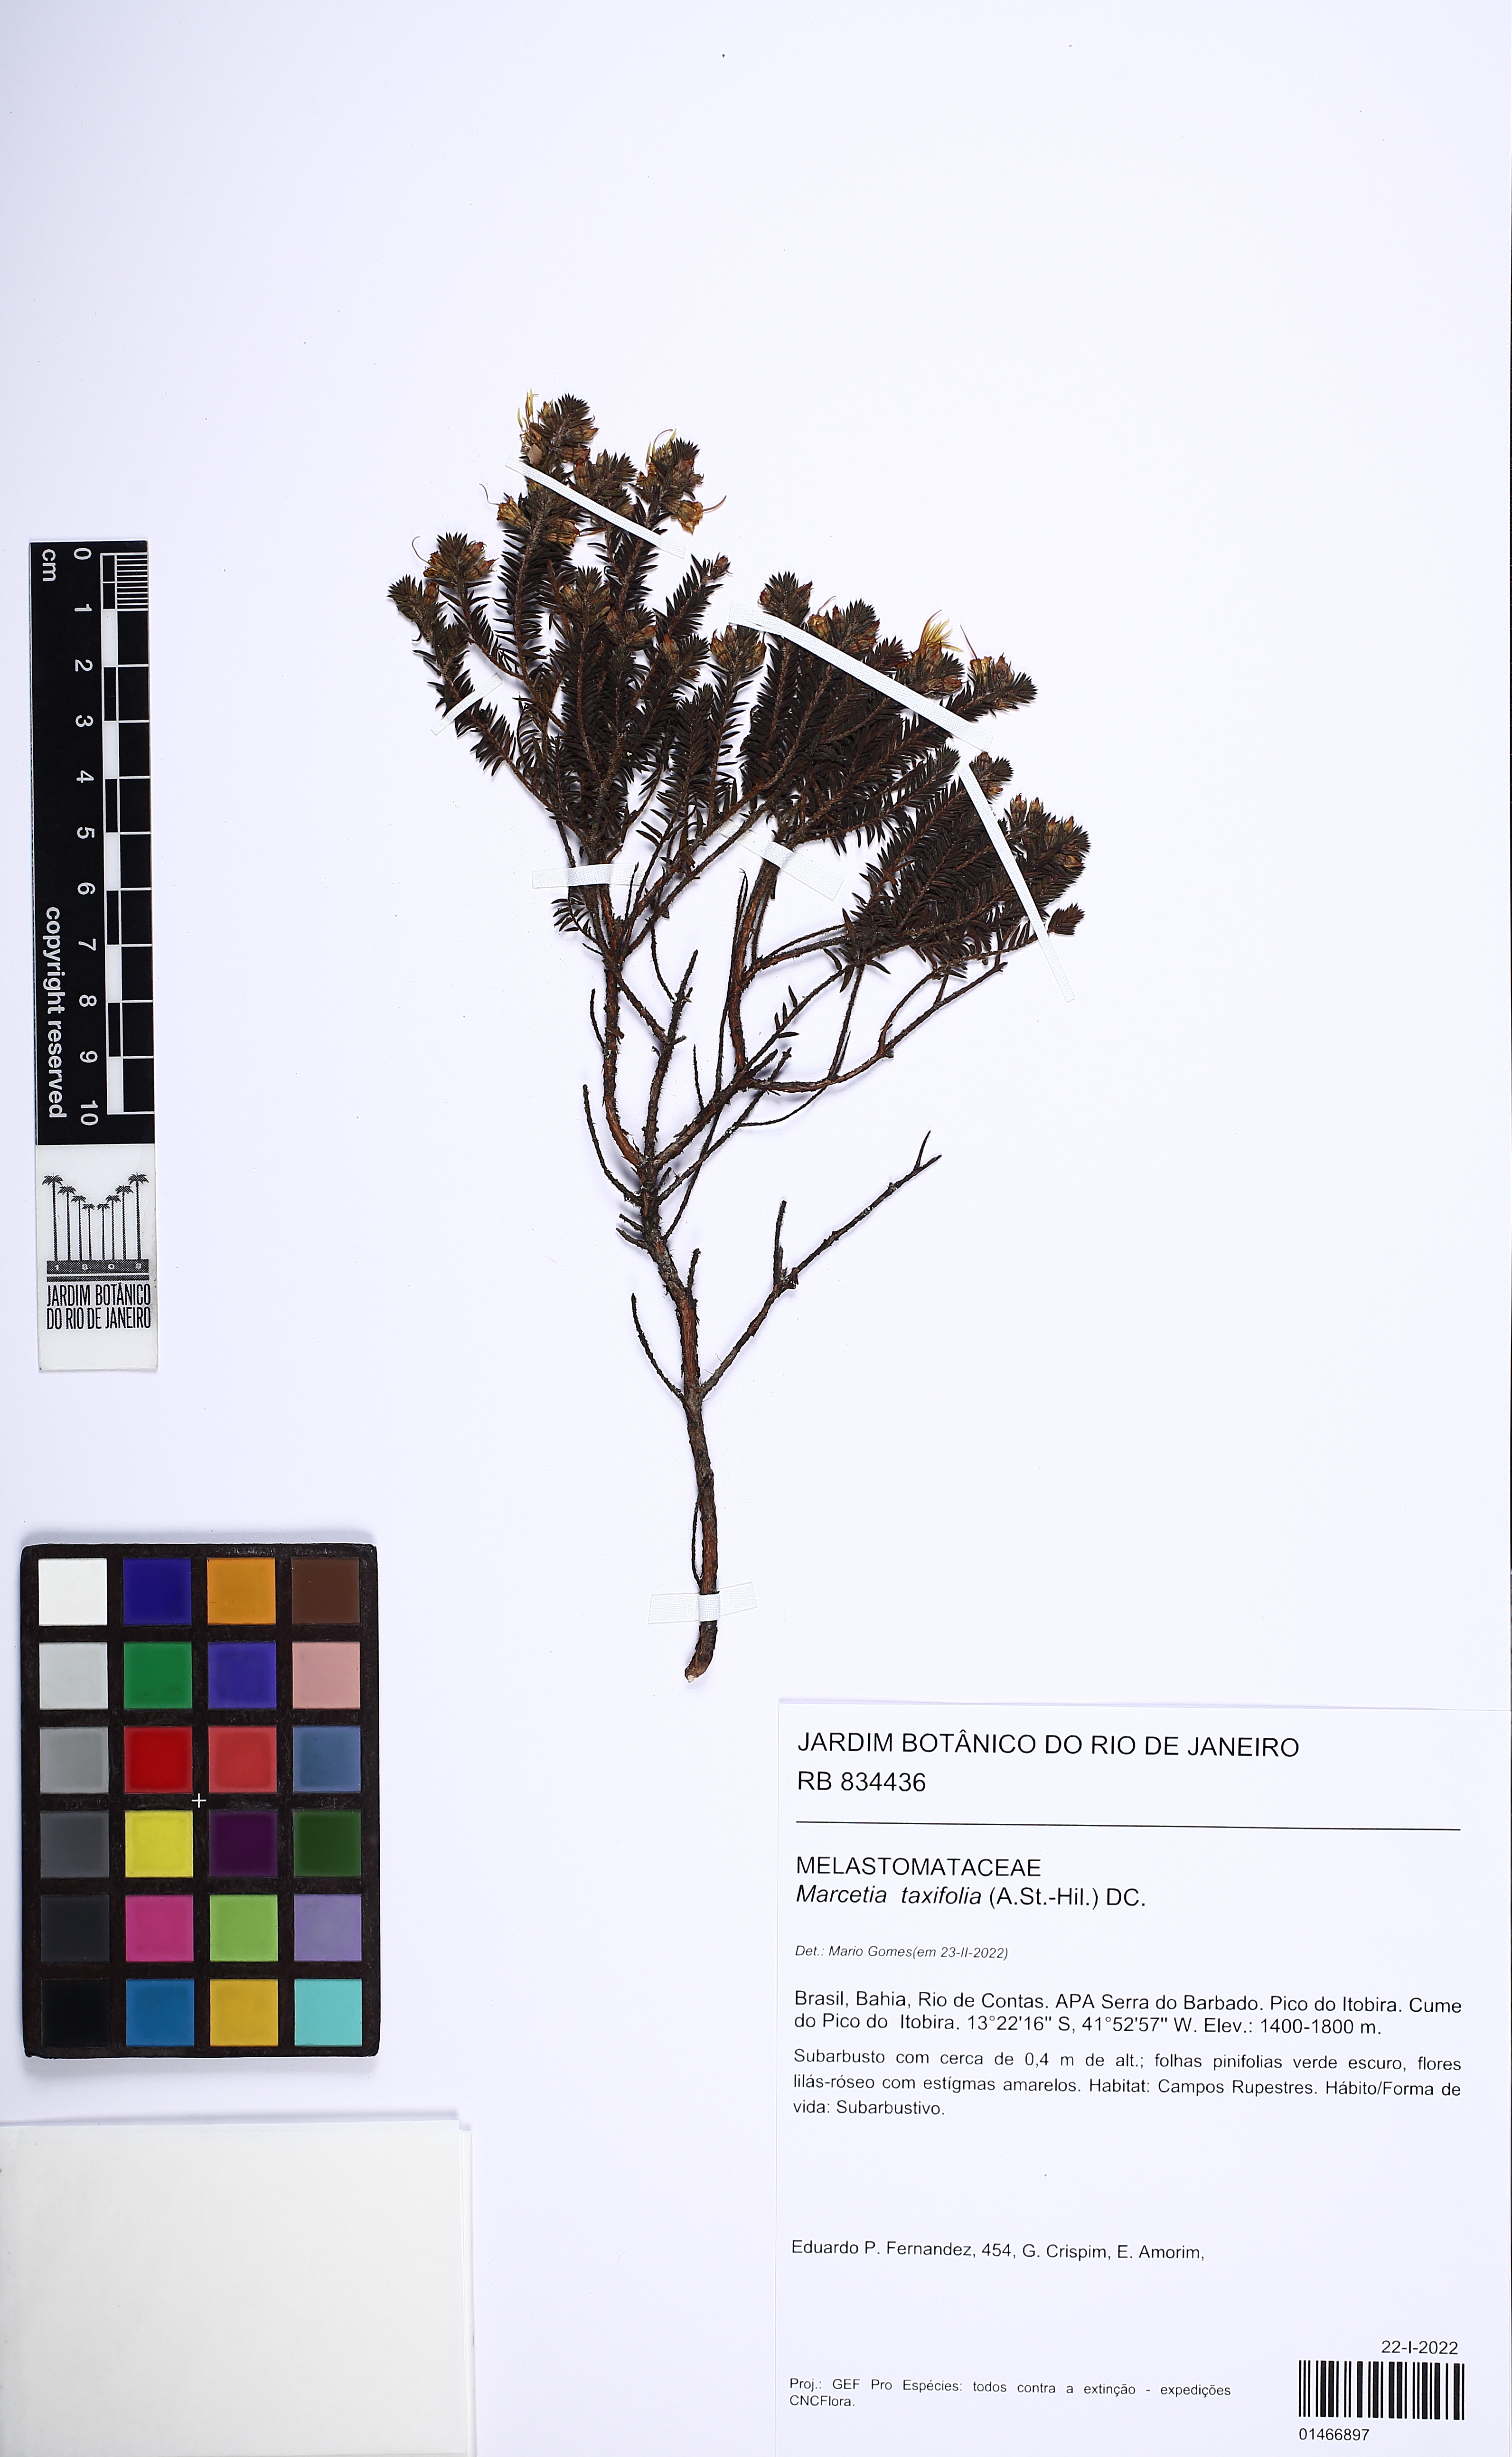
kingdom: Plantae
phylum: Tracheophyta
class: Magnoliopsida
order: Myrtales
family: Melastomataceae
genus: Marcetia
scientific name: Marcetia taxifolia
